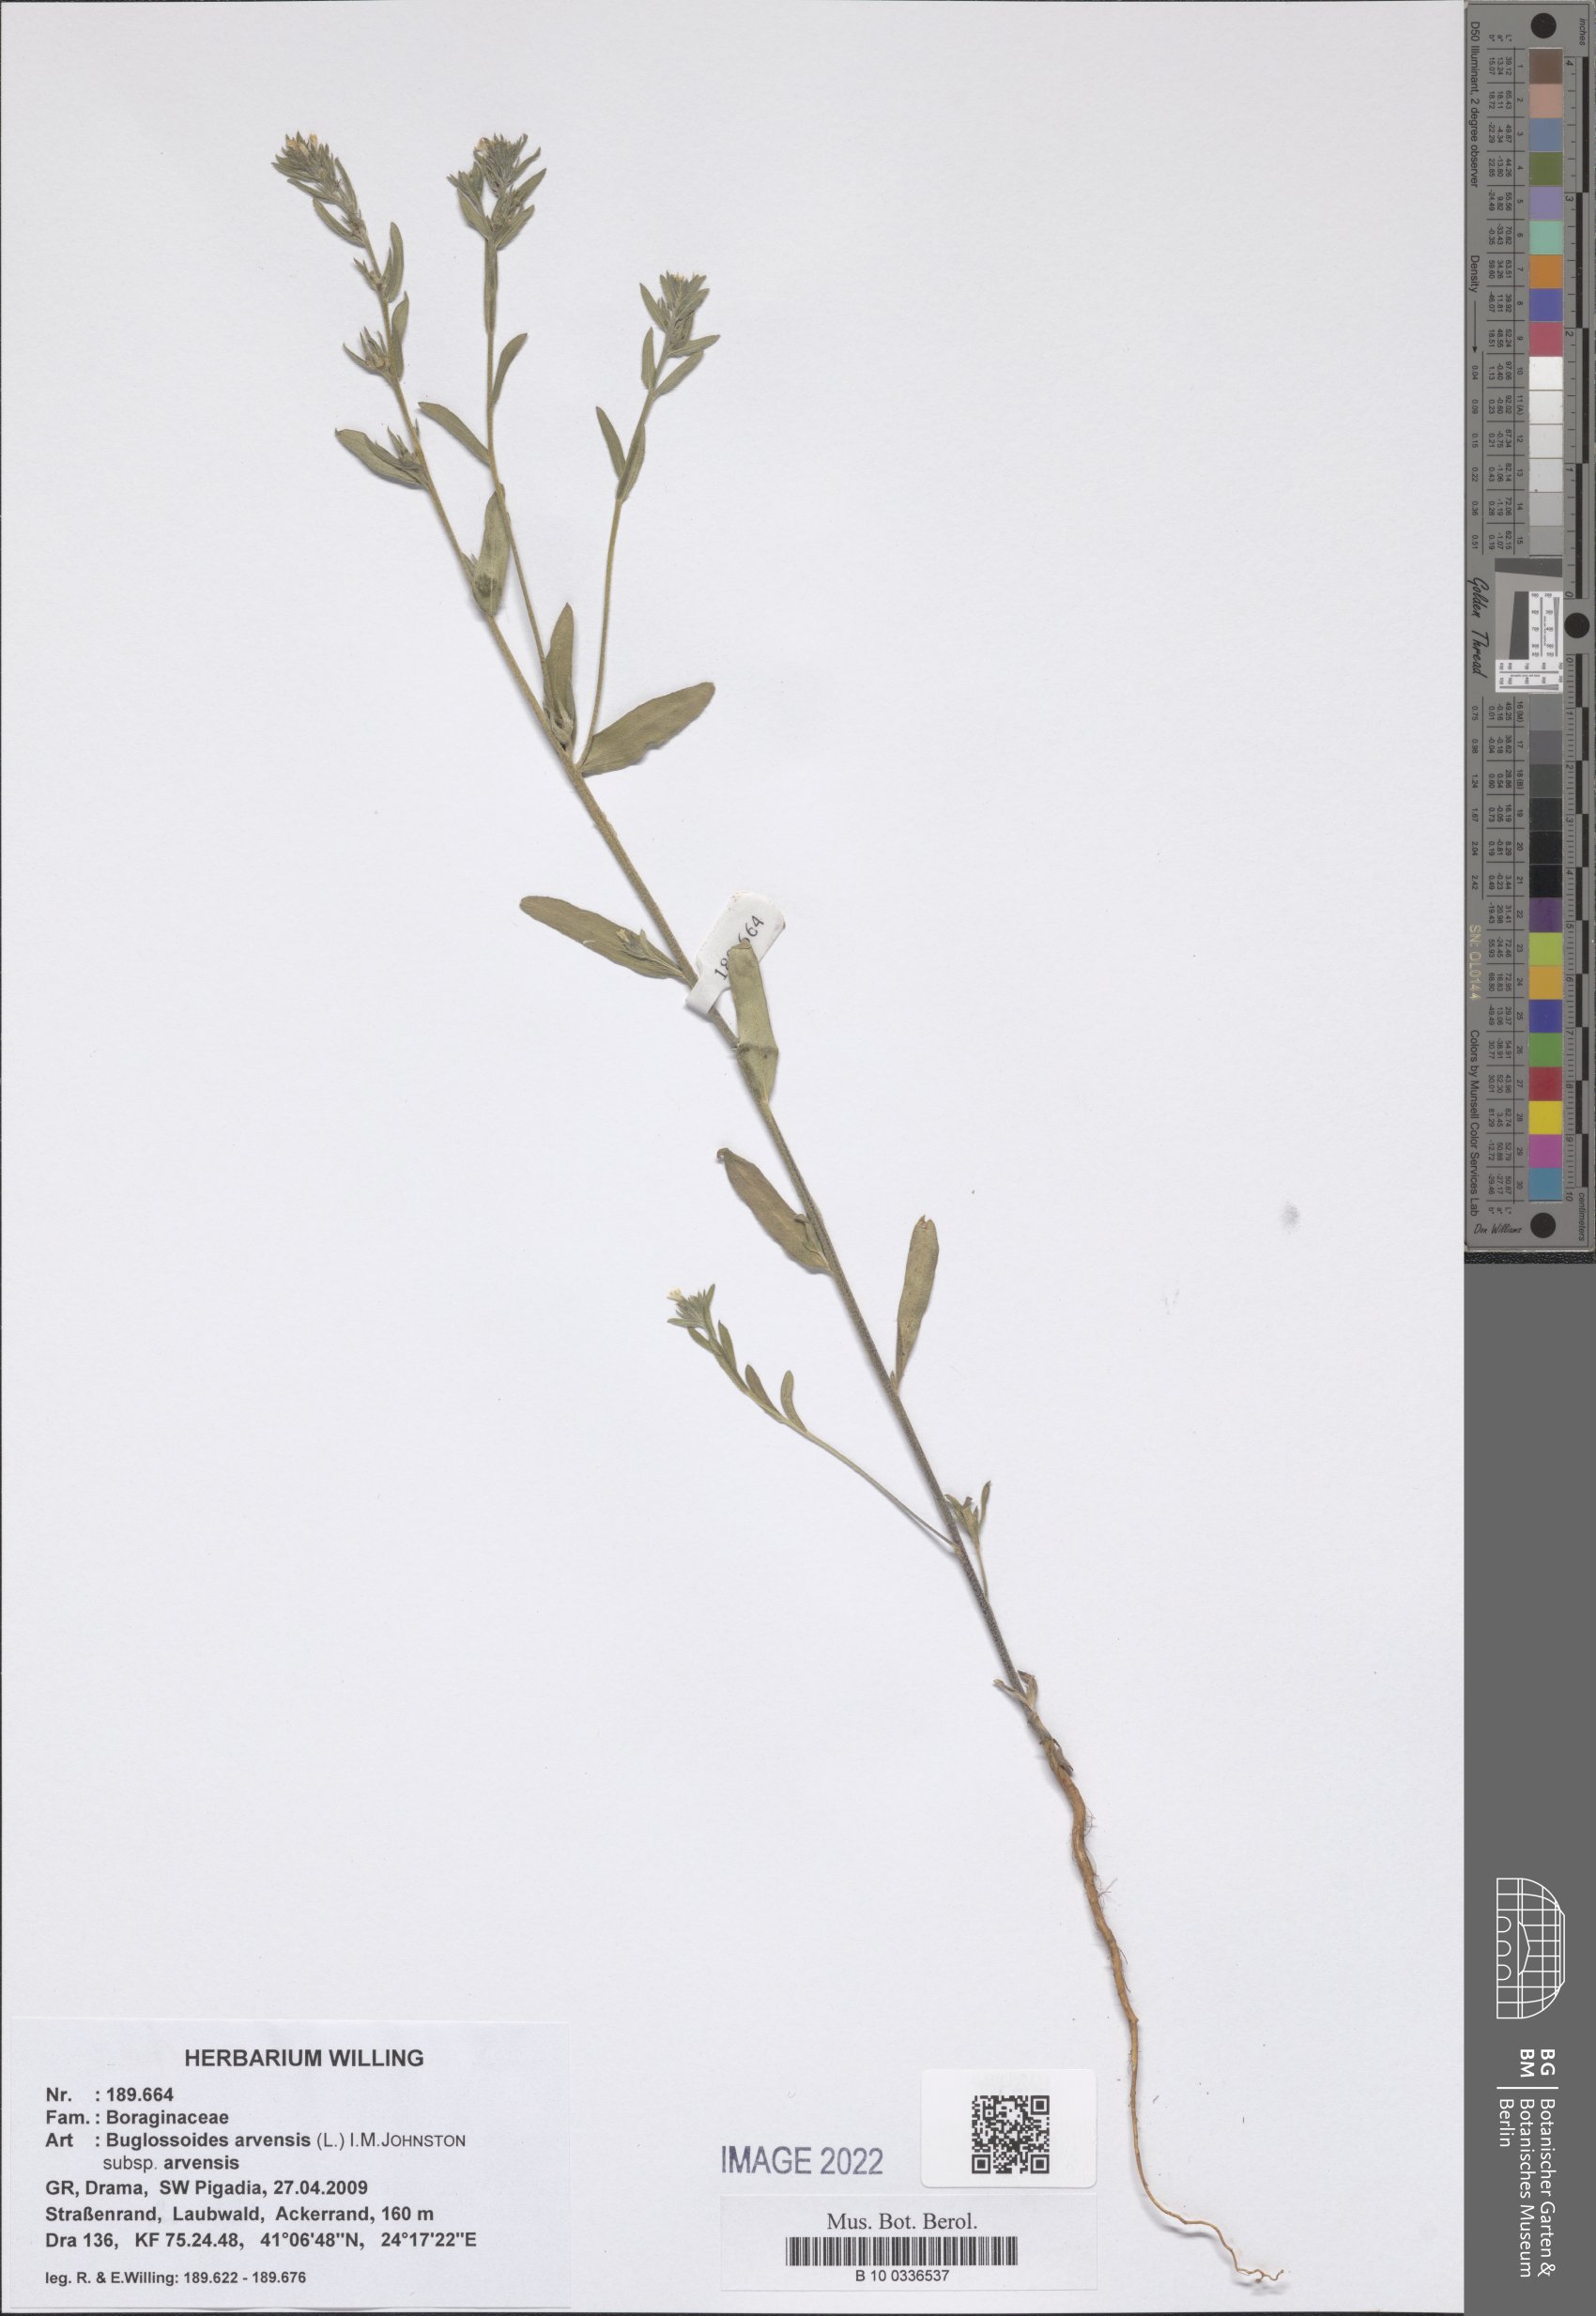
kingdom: Plantae
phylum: Tracheophyta
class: Magnoliopsida
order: Boraginales
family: Boraginaceae
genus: Buglossoides
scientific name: Buglossoides arvensis
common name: Corn gromwell
